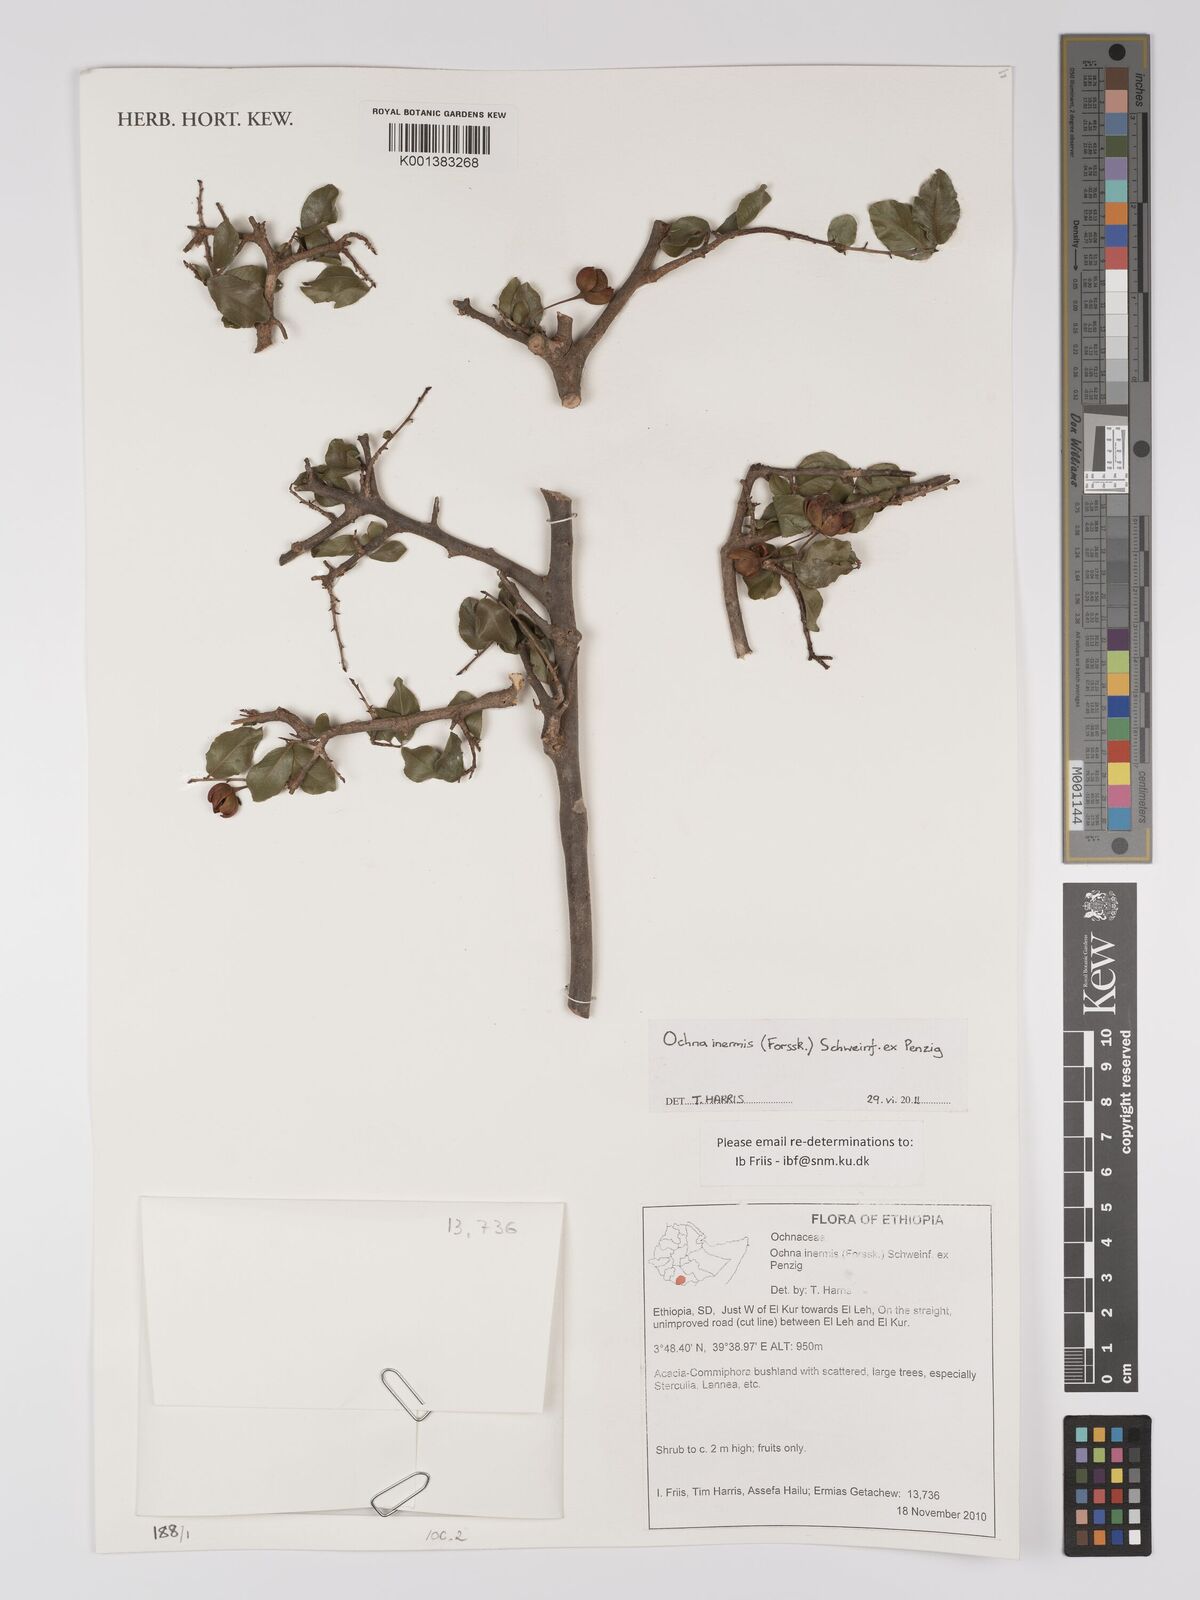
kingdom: Plantae
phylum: Tracheophyta
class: Magnoliopsida
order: Malpighiales
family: Ochnaceae
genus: Ochna
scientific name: Ochna inermis
